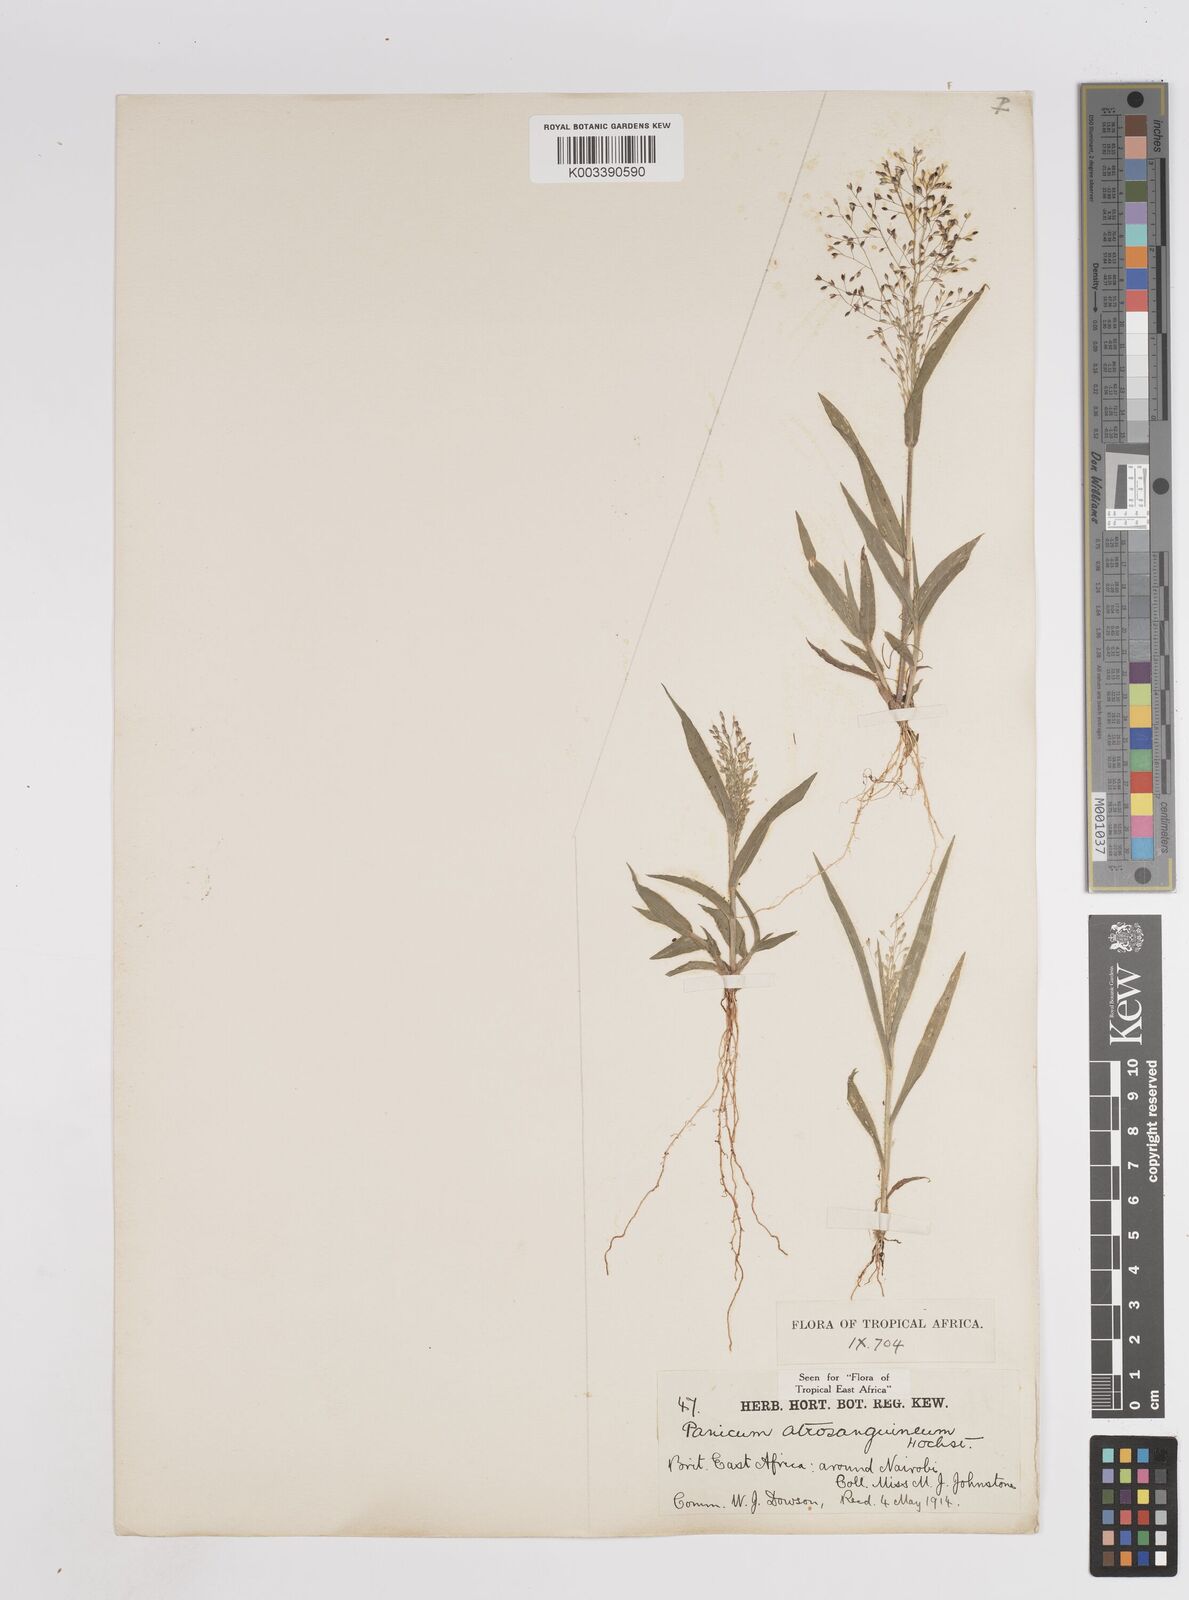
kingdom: Plantae
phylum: Tracheophyta
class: Liliopsida
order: Poales
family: Poaceae
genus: Panicum
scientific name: Panicum atrosanguineum
